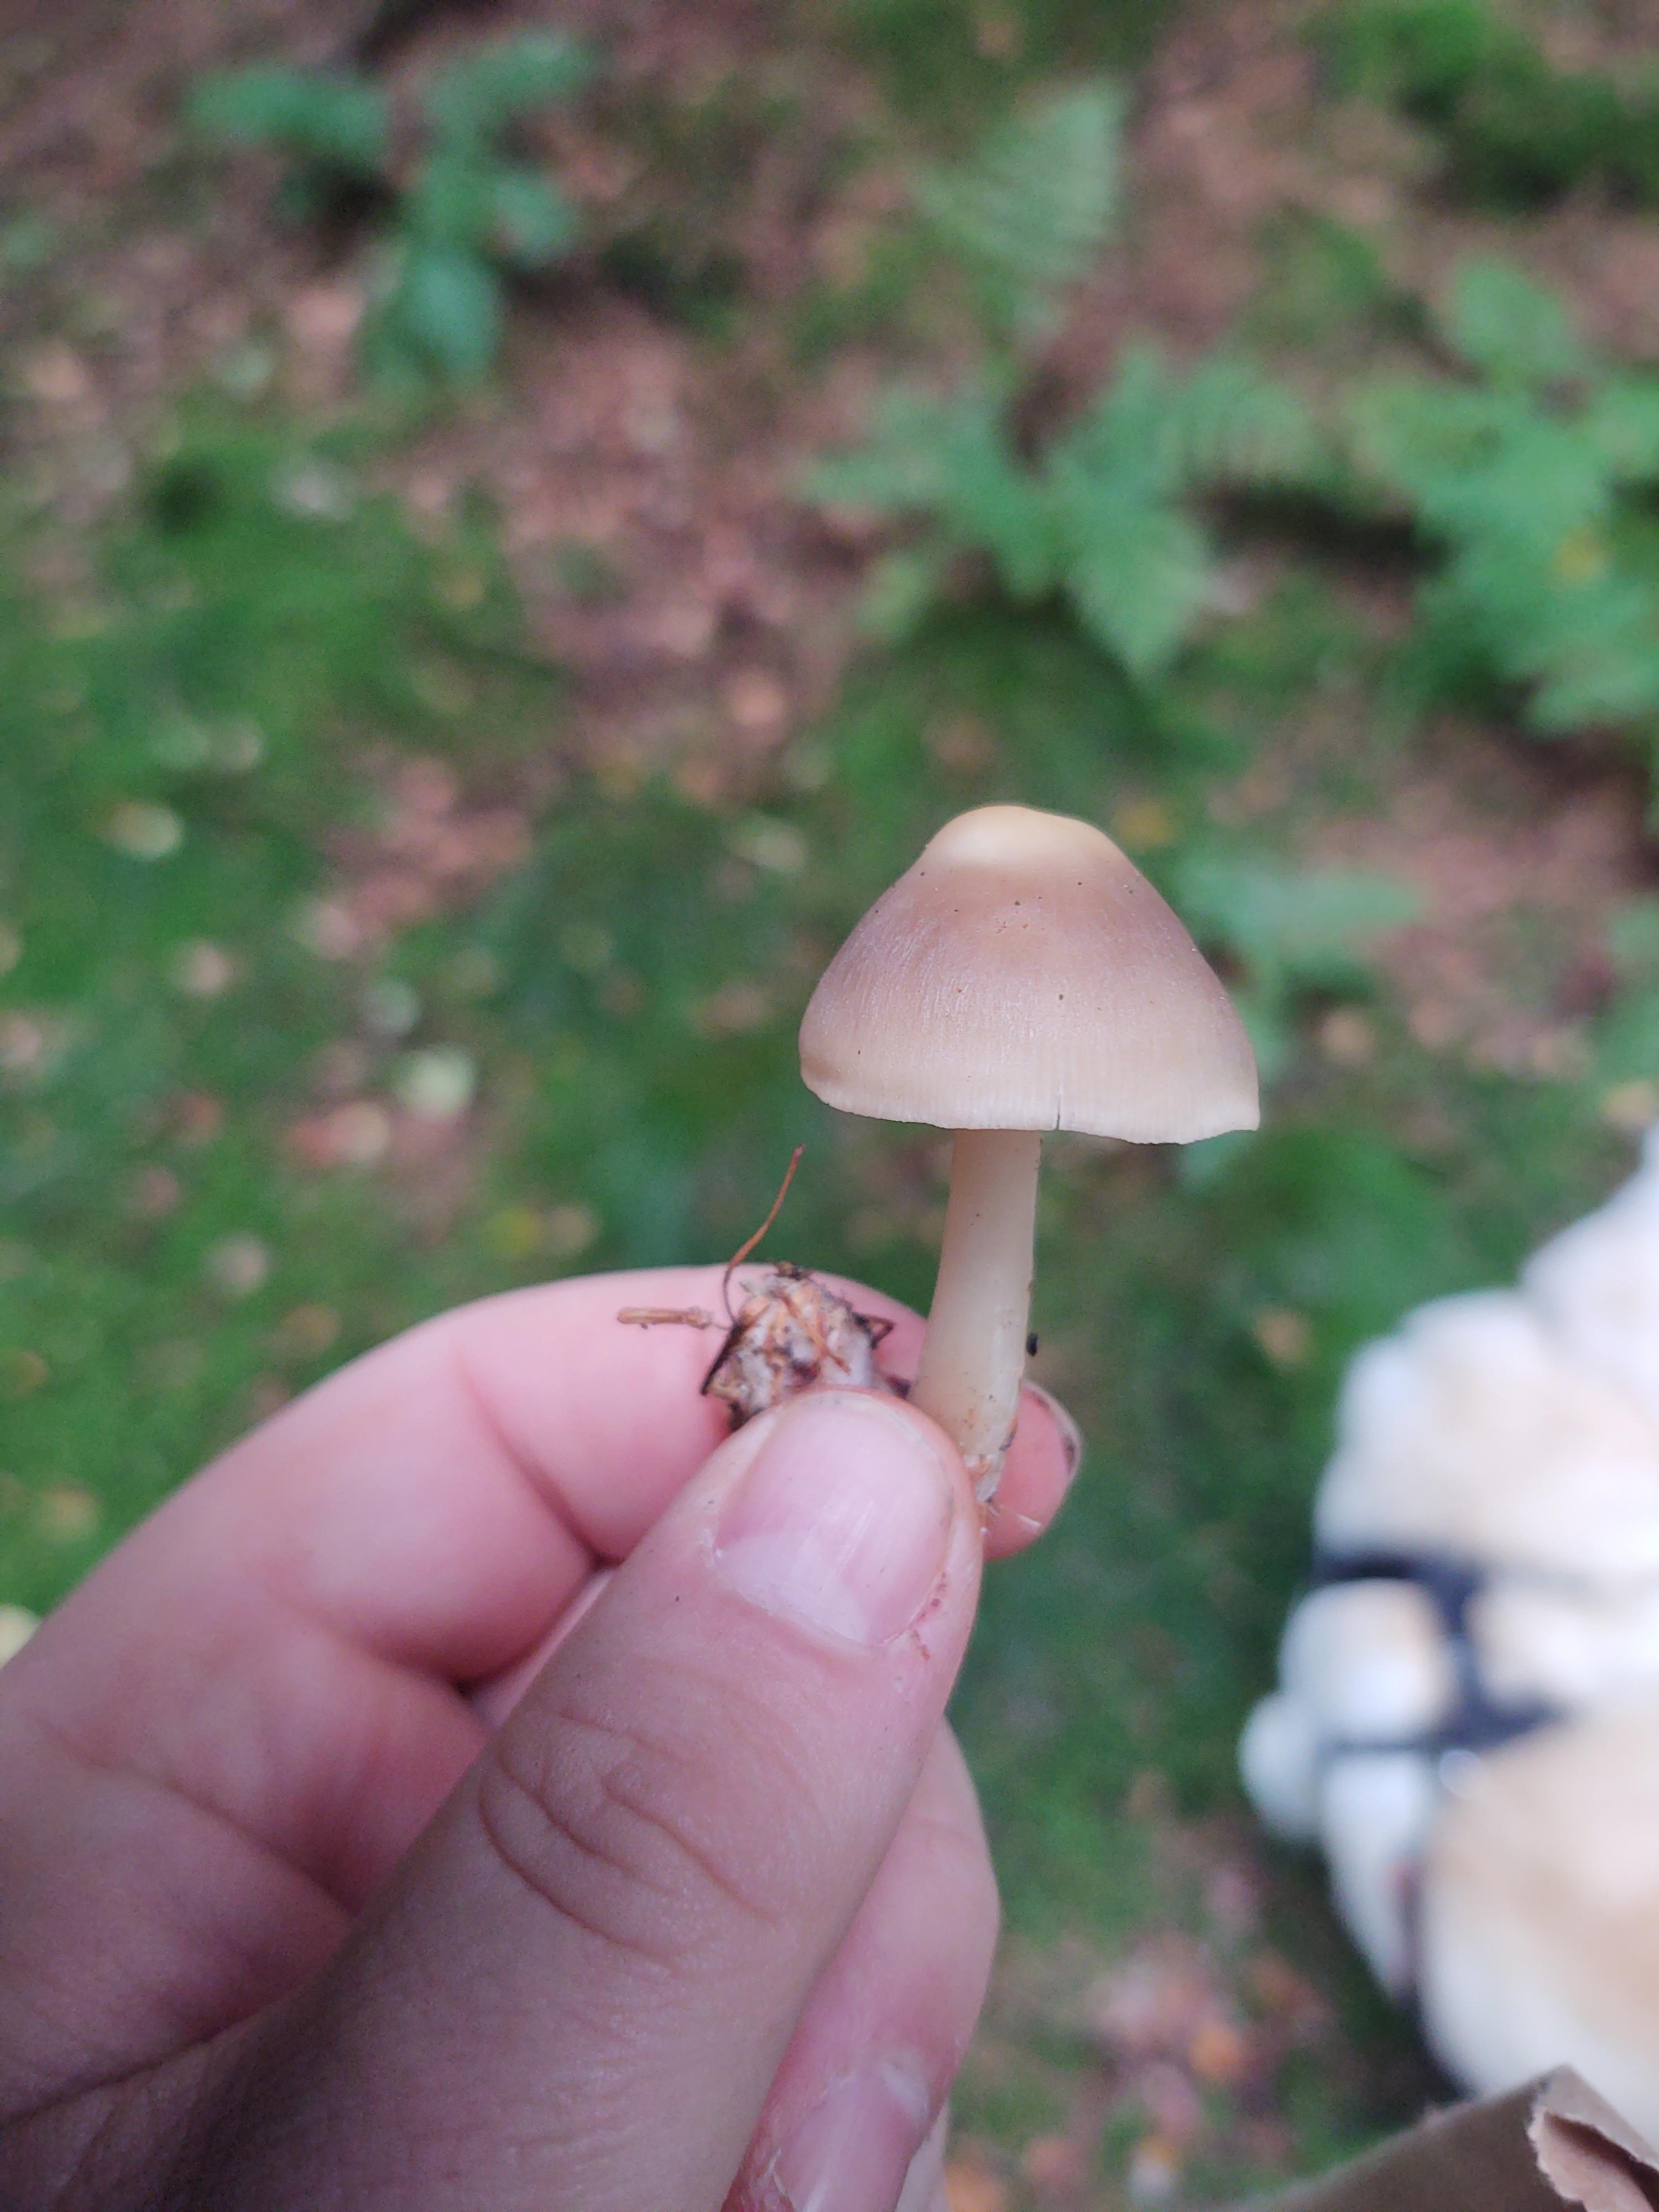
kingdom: Fungi
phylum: Basidiomycota
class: Agaricomycetes
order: Agaricales
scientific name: Agaricales
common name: champignonordenen
